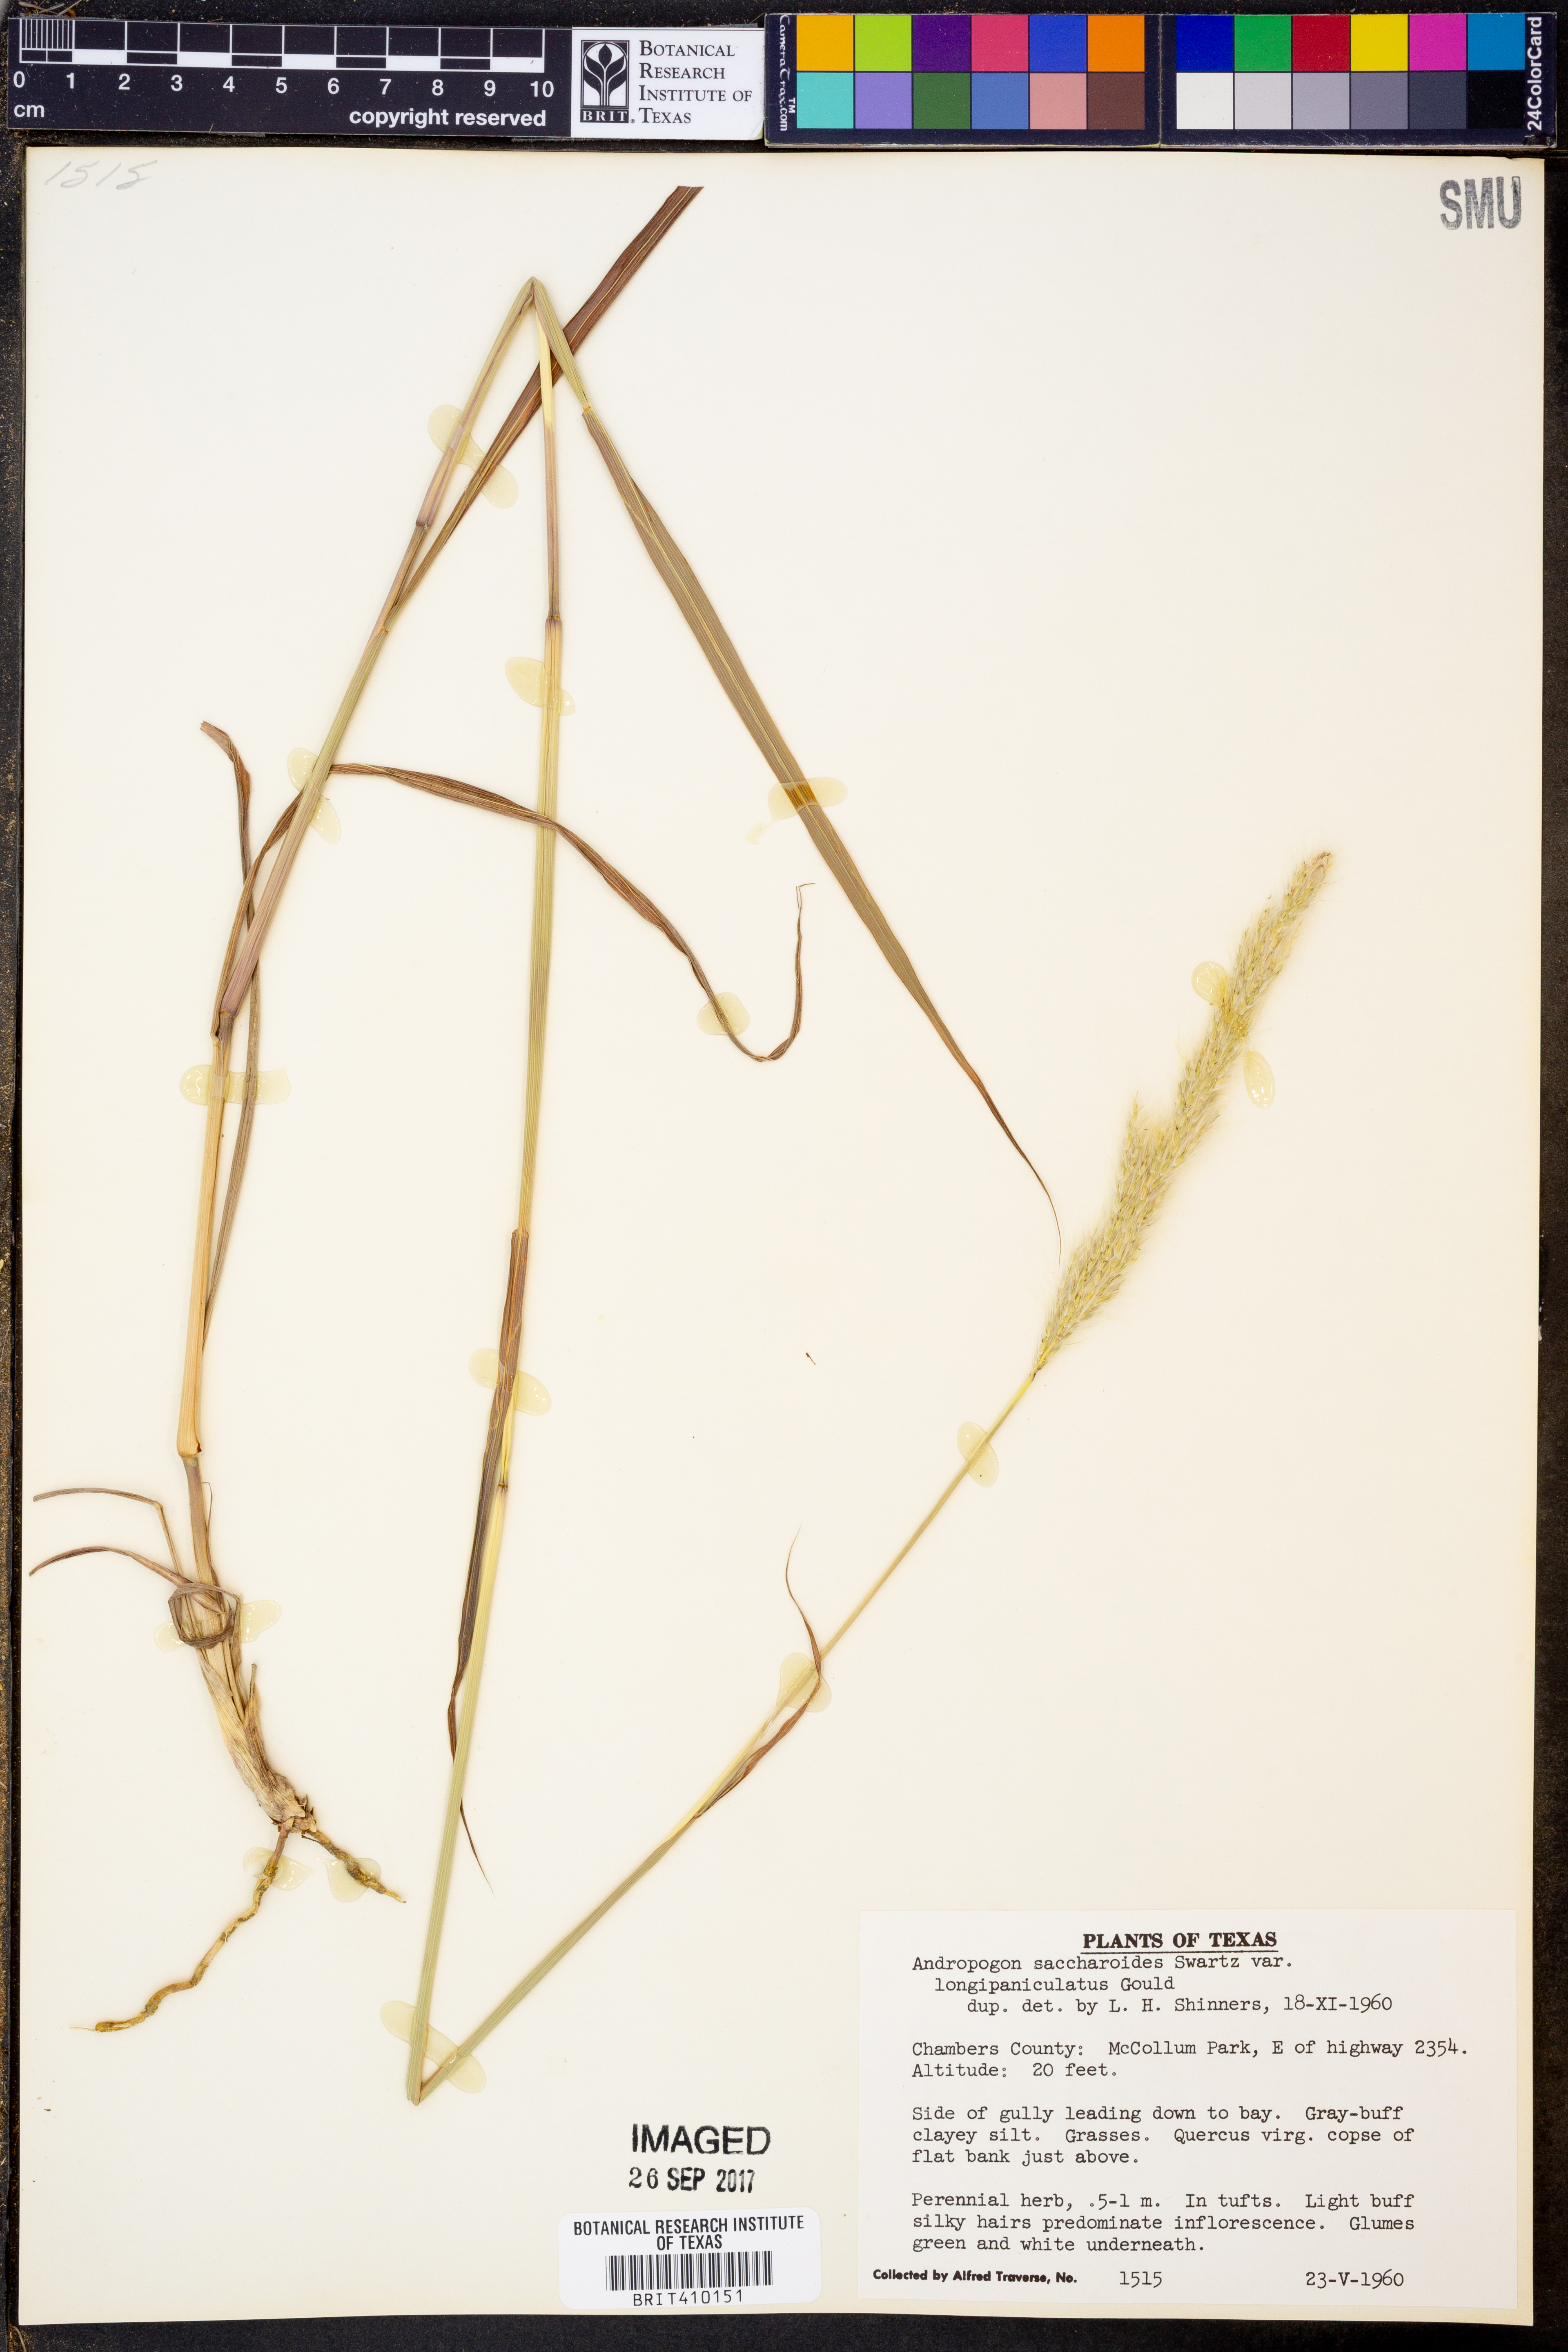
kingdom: Plantae
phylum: Tracheophyta
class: Liliopsida
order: Poales
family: Poaceae
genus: Bothriochloa
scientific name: Bothriochloa longipaniculata
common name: Longspike silver bluestem
